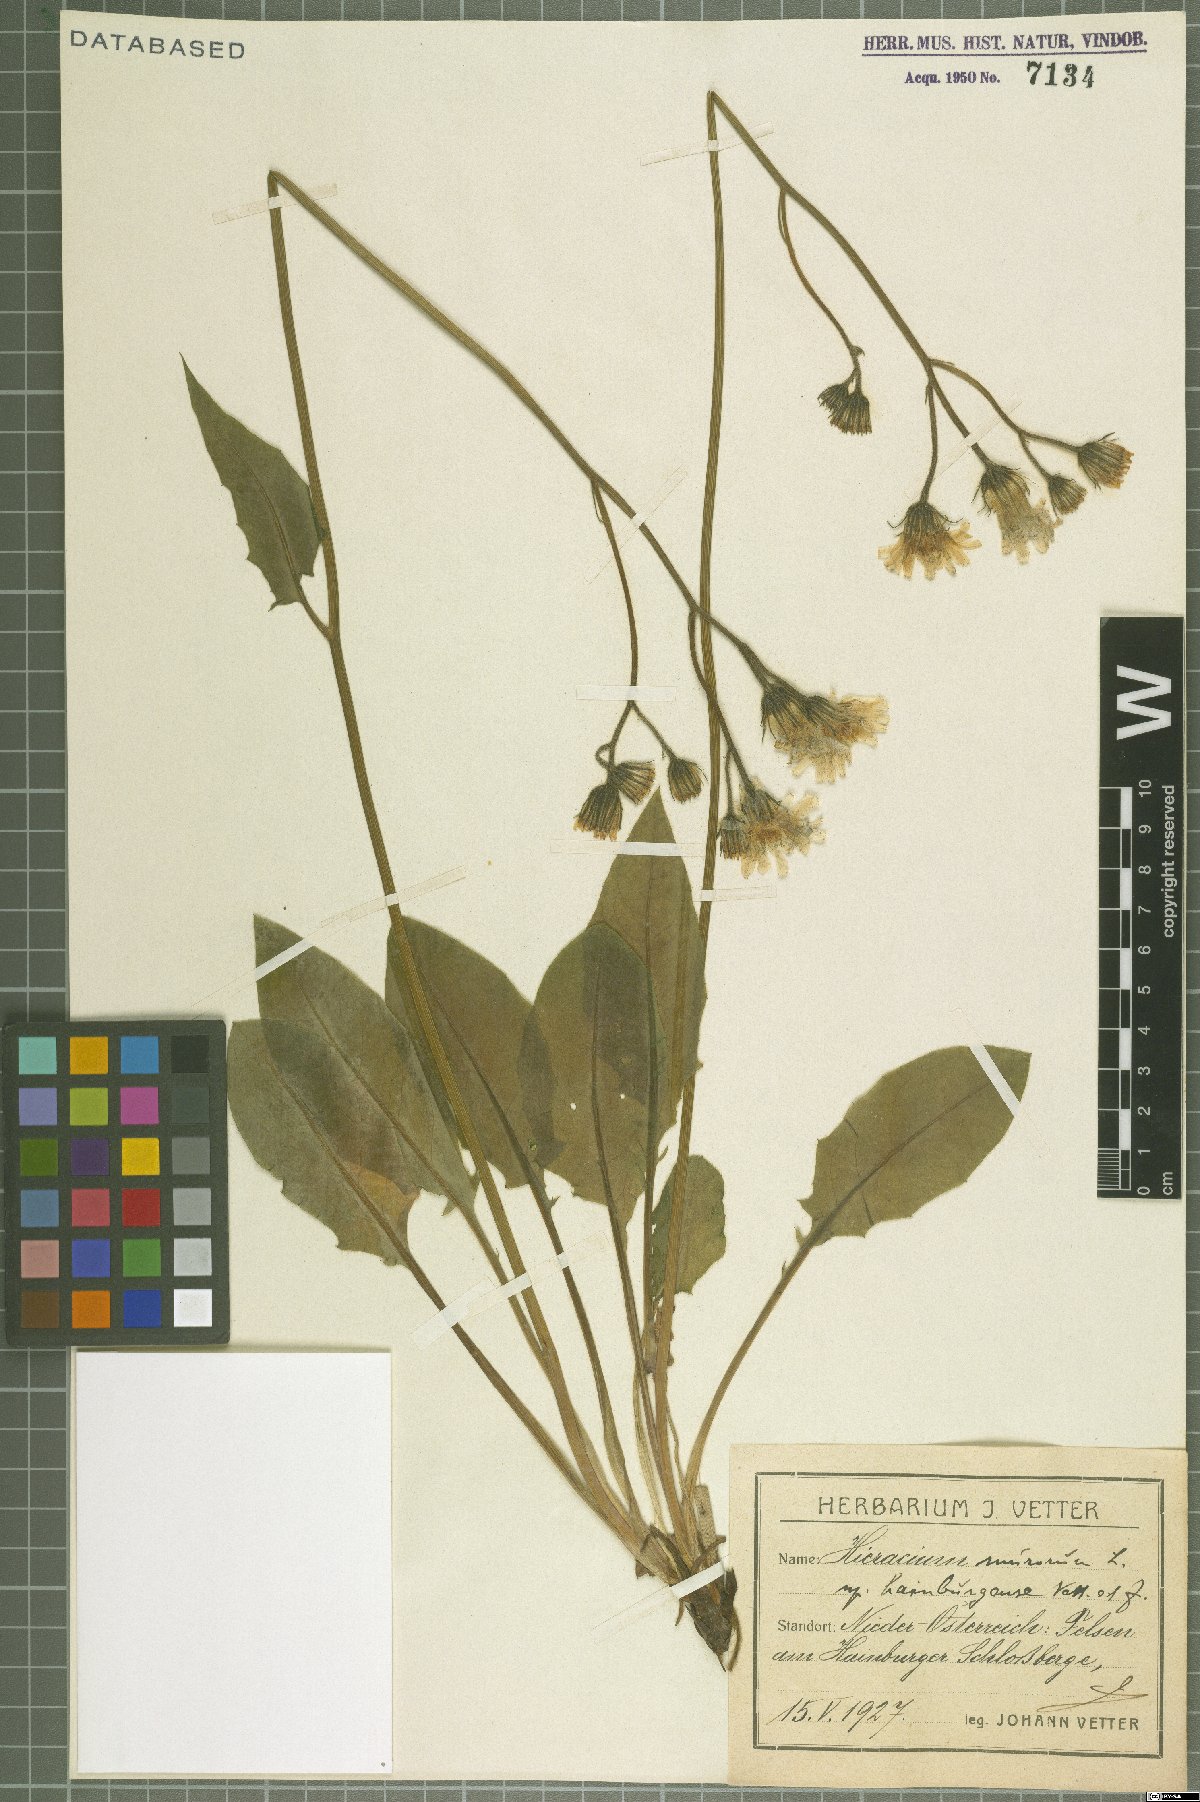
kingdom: Plantae
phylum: Tracheophyta
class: Magnoliopsida
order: Asterales
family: Asteraceae
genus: Hieracium
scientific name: Hieracium murorum
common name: Wall hawkweed
